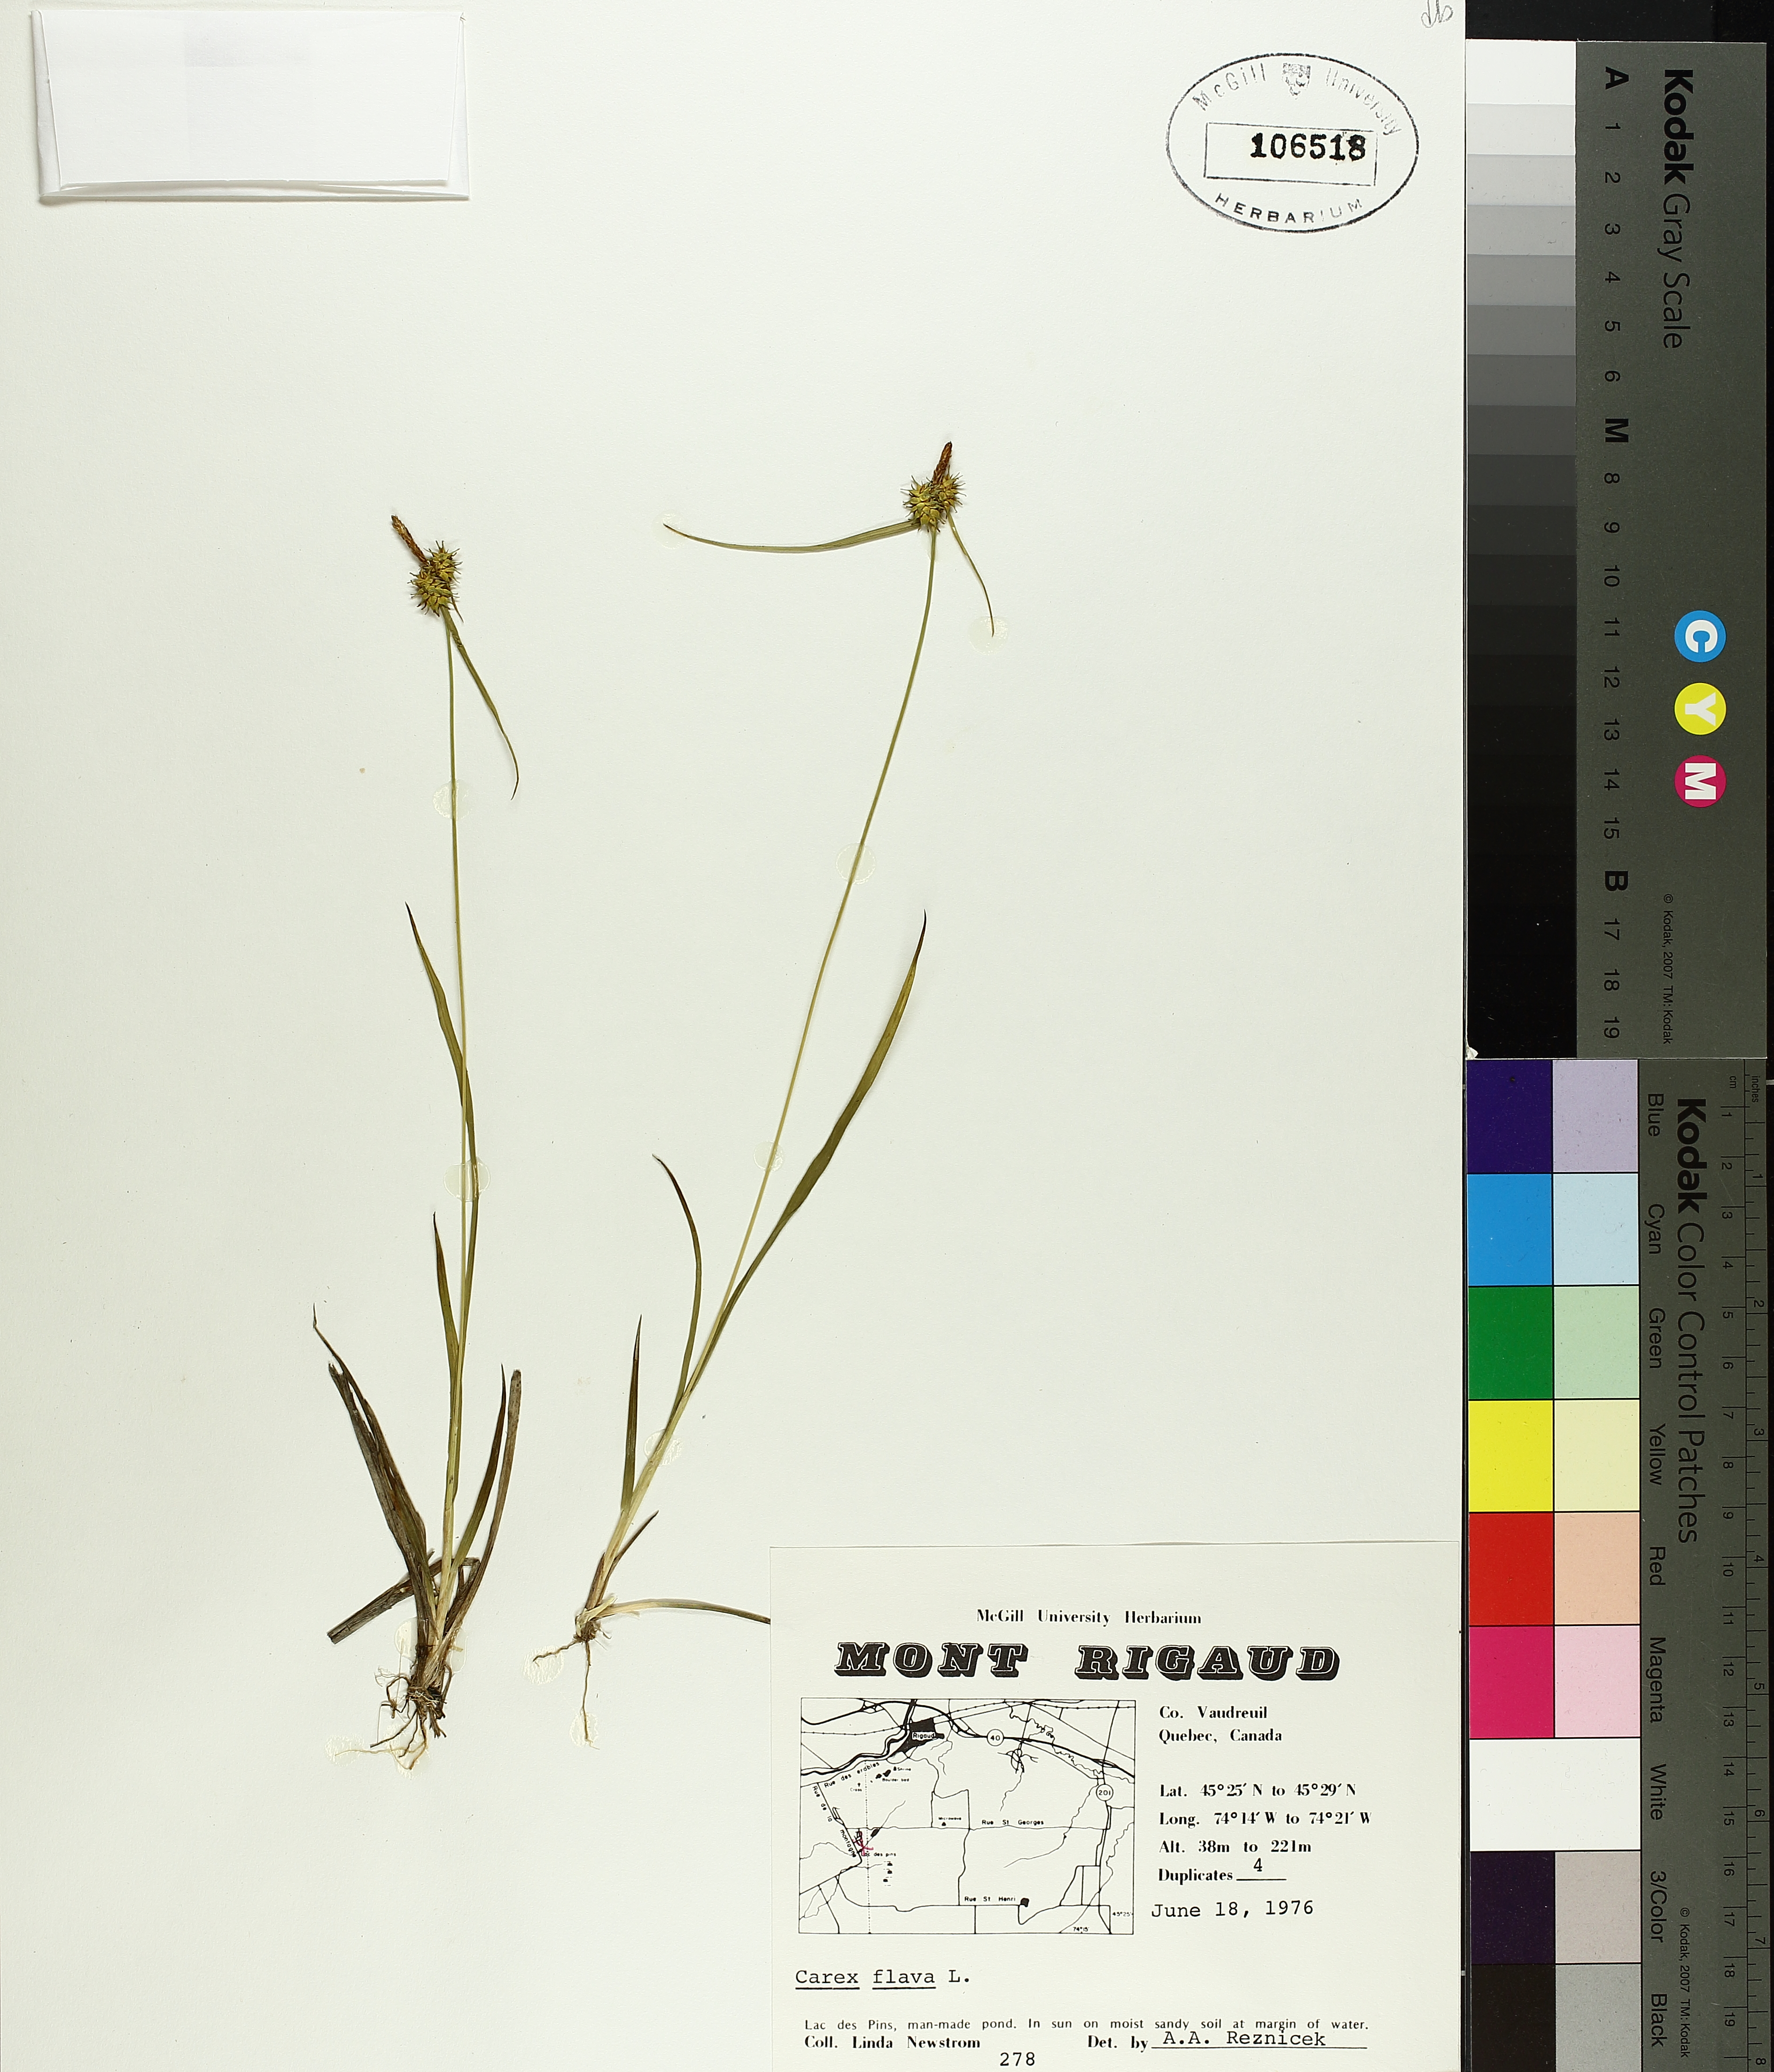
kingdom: Plantae
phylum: Tracheophyta
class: Liliopsida
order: Poales
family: Cyperaceae
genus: Carex
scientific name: Carex flava
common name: Large yellow-sedge
